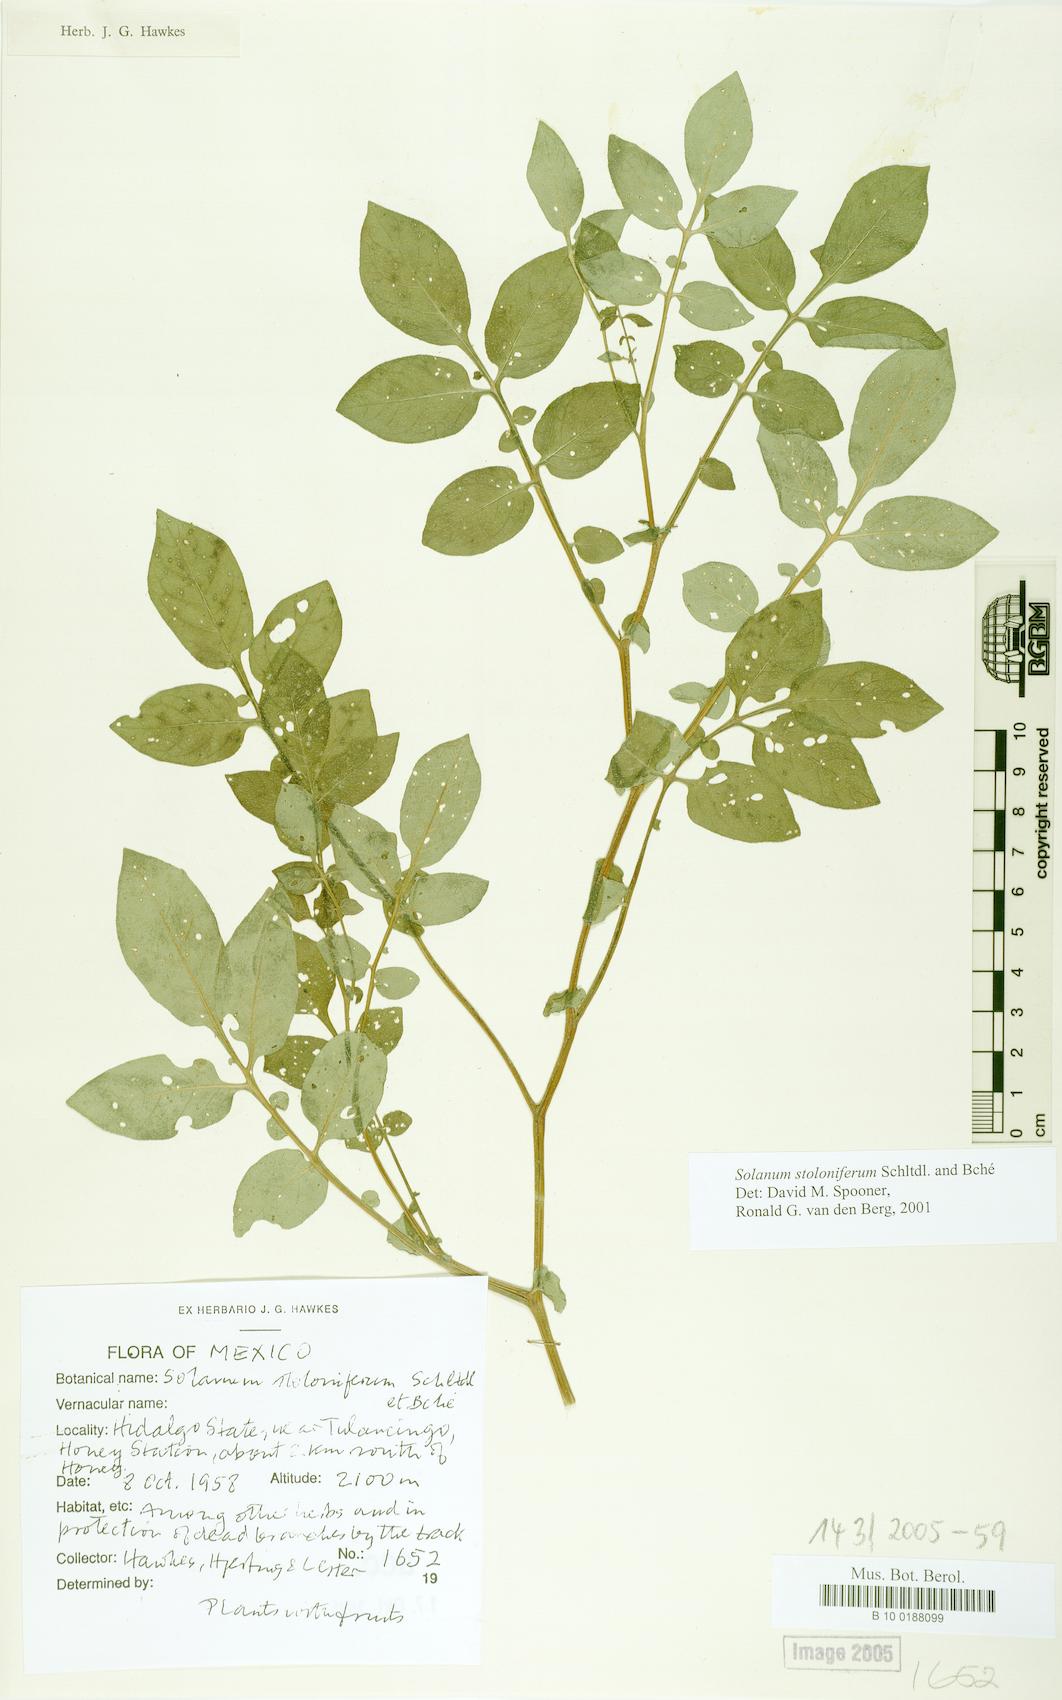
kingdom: Plantae
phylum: Tracheophyta
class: Magnoliopsida
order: Solanales
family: Solanaceae
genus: Solanum
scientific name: Solanum stoloniferum
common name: Fendler's nighshade
